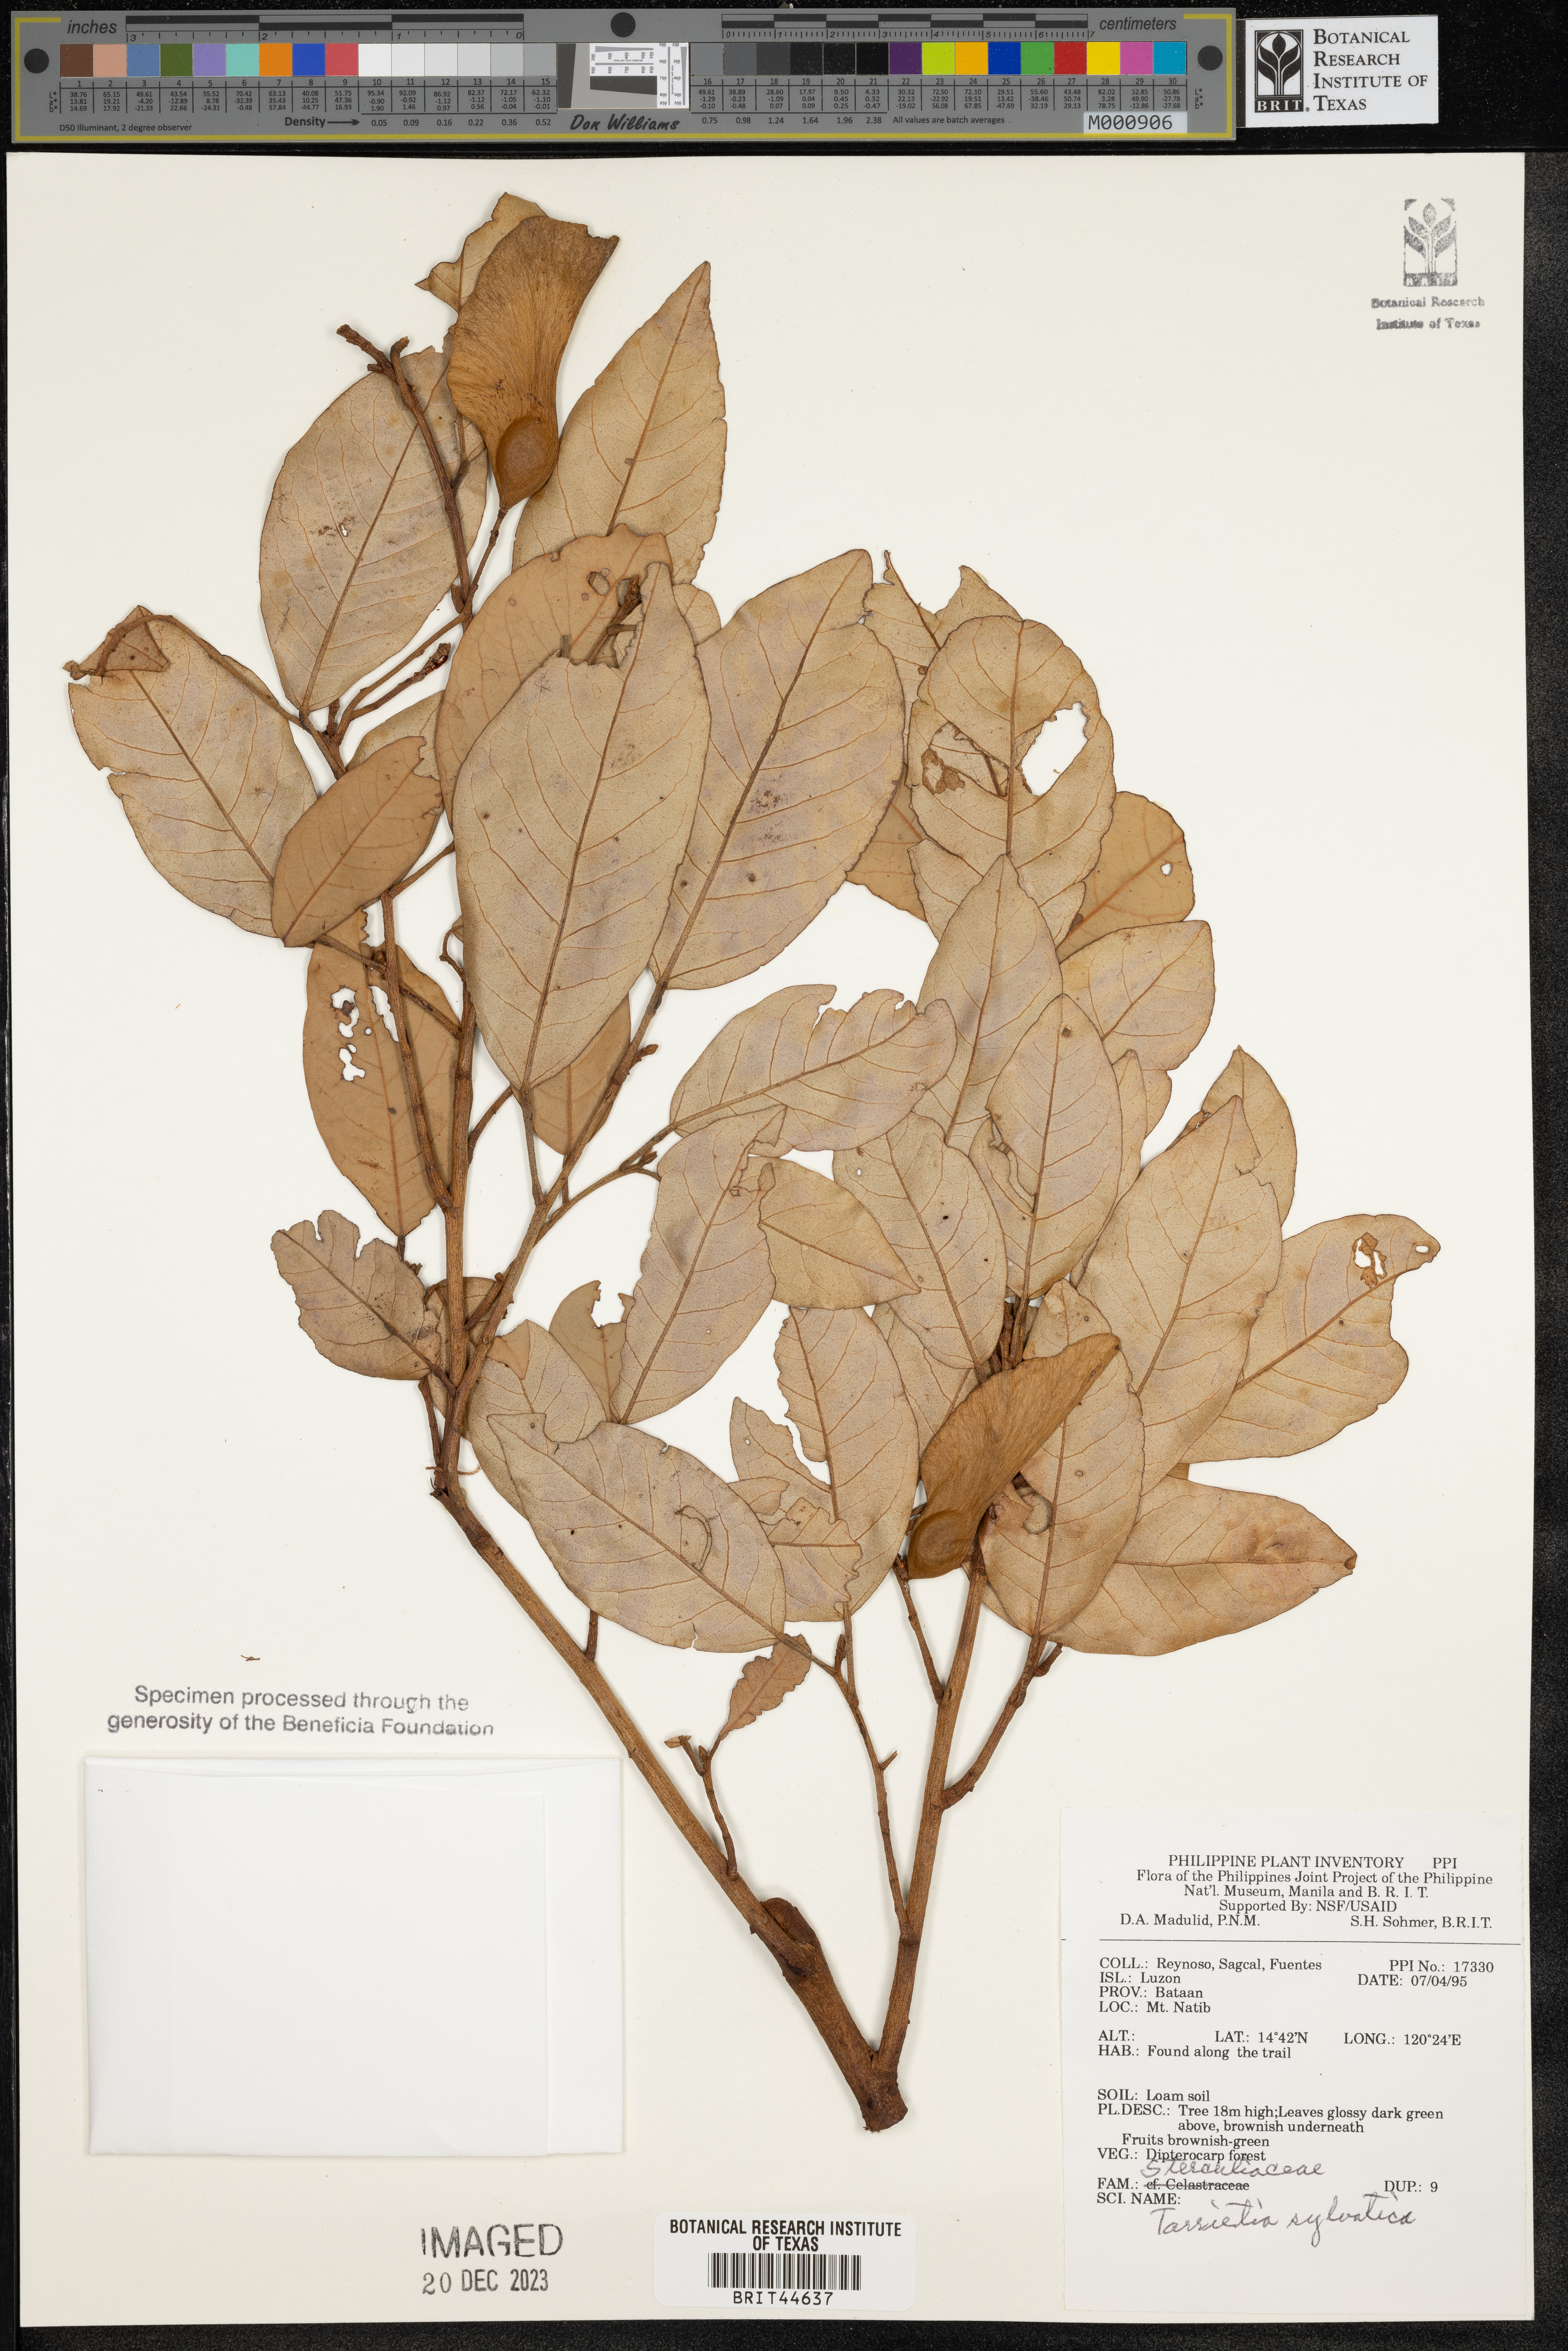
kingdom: Plantae
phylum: Tracheophyta
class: Magnoliopsida
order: Malvales
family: Malvaceae
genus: Heritiera
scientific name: Heritiera sylvatica
